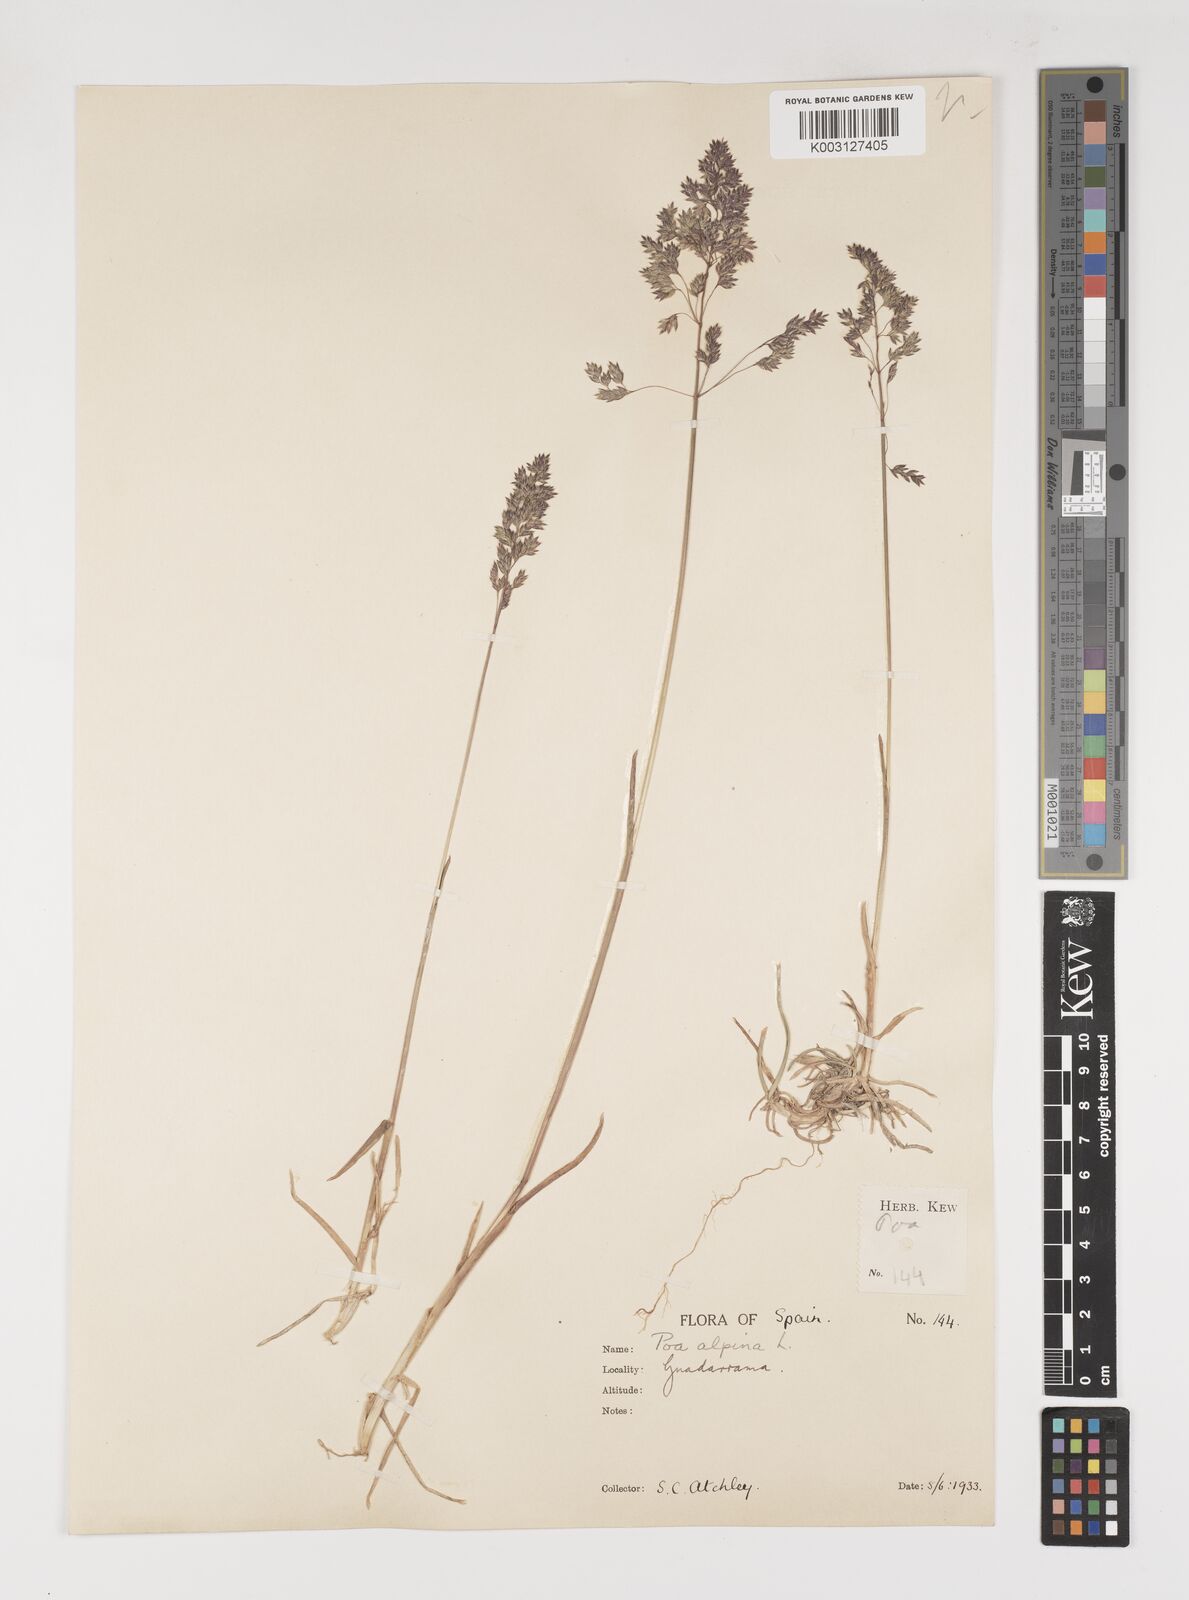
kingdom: Plantae
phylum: Tracheophyta
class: Liliopsida
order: Poales
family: Poaceae
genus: Poa
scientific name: Poa alpina
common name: Alpine bluegrass
